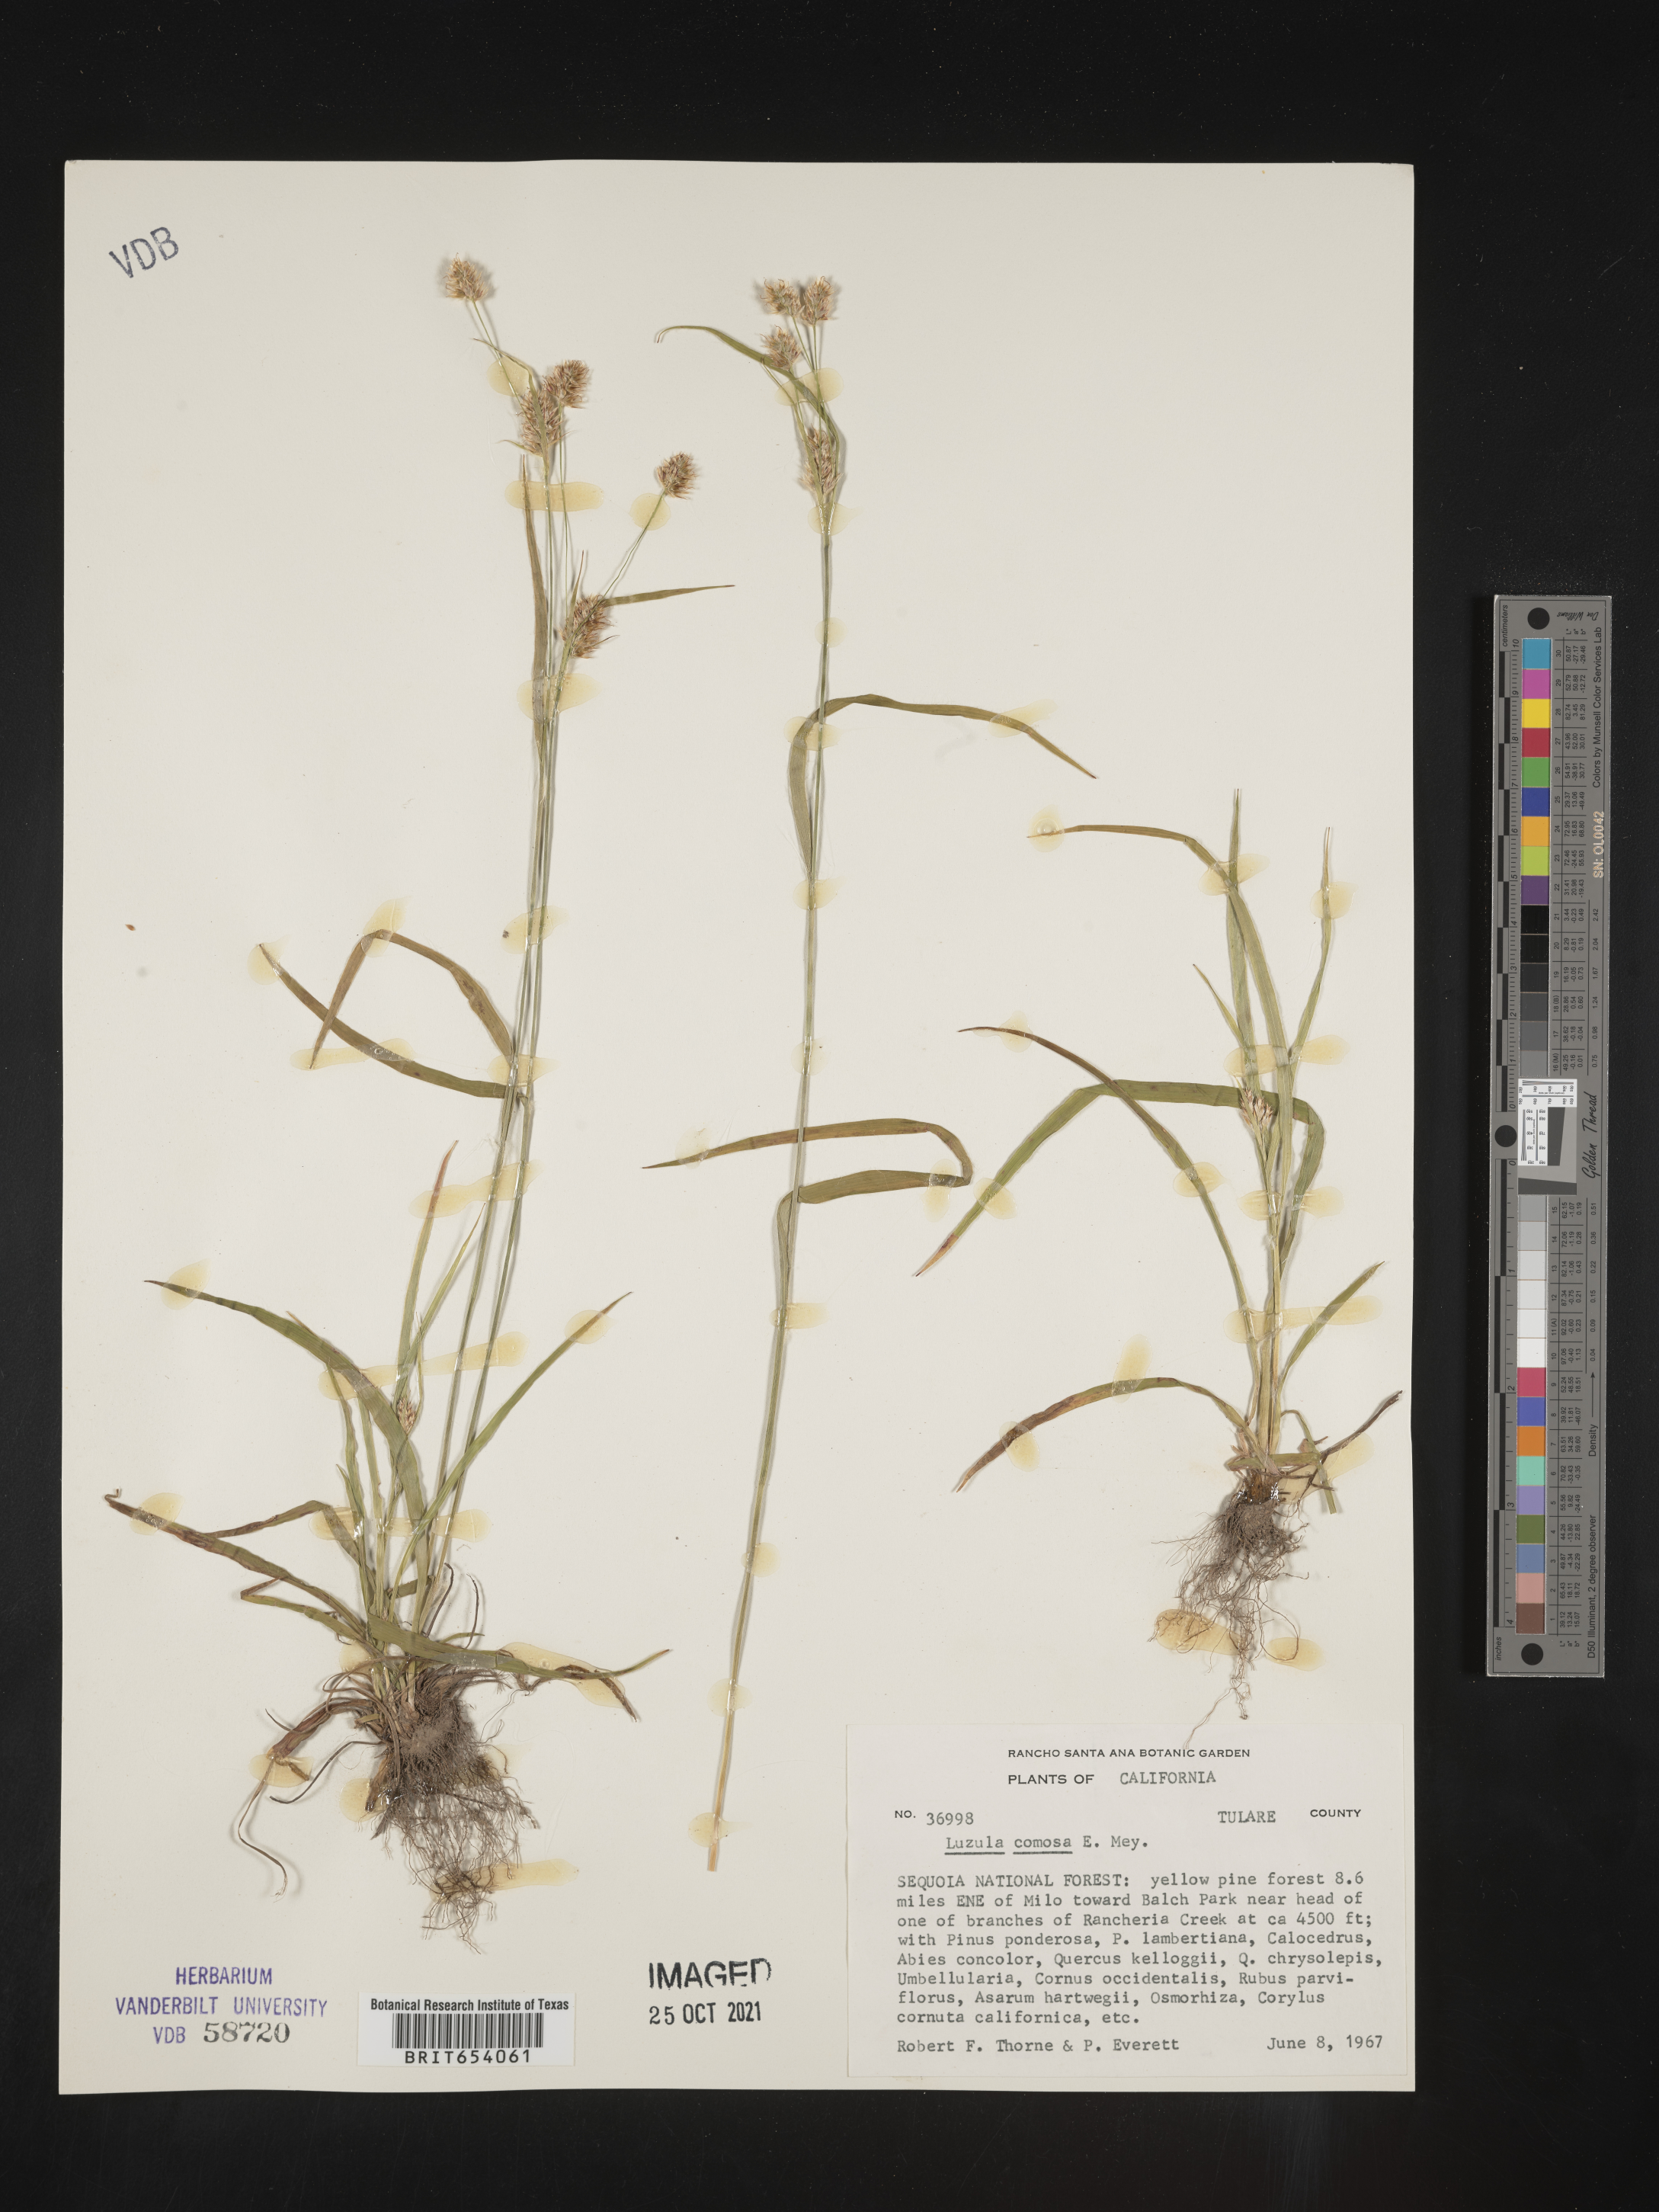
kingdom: Plantae
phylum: Tracheophyta
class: Liliopsida
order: Poales
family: Juncaceae
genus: Luzula
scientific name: Luzula comosa
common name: Pacific woodrush
